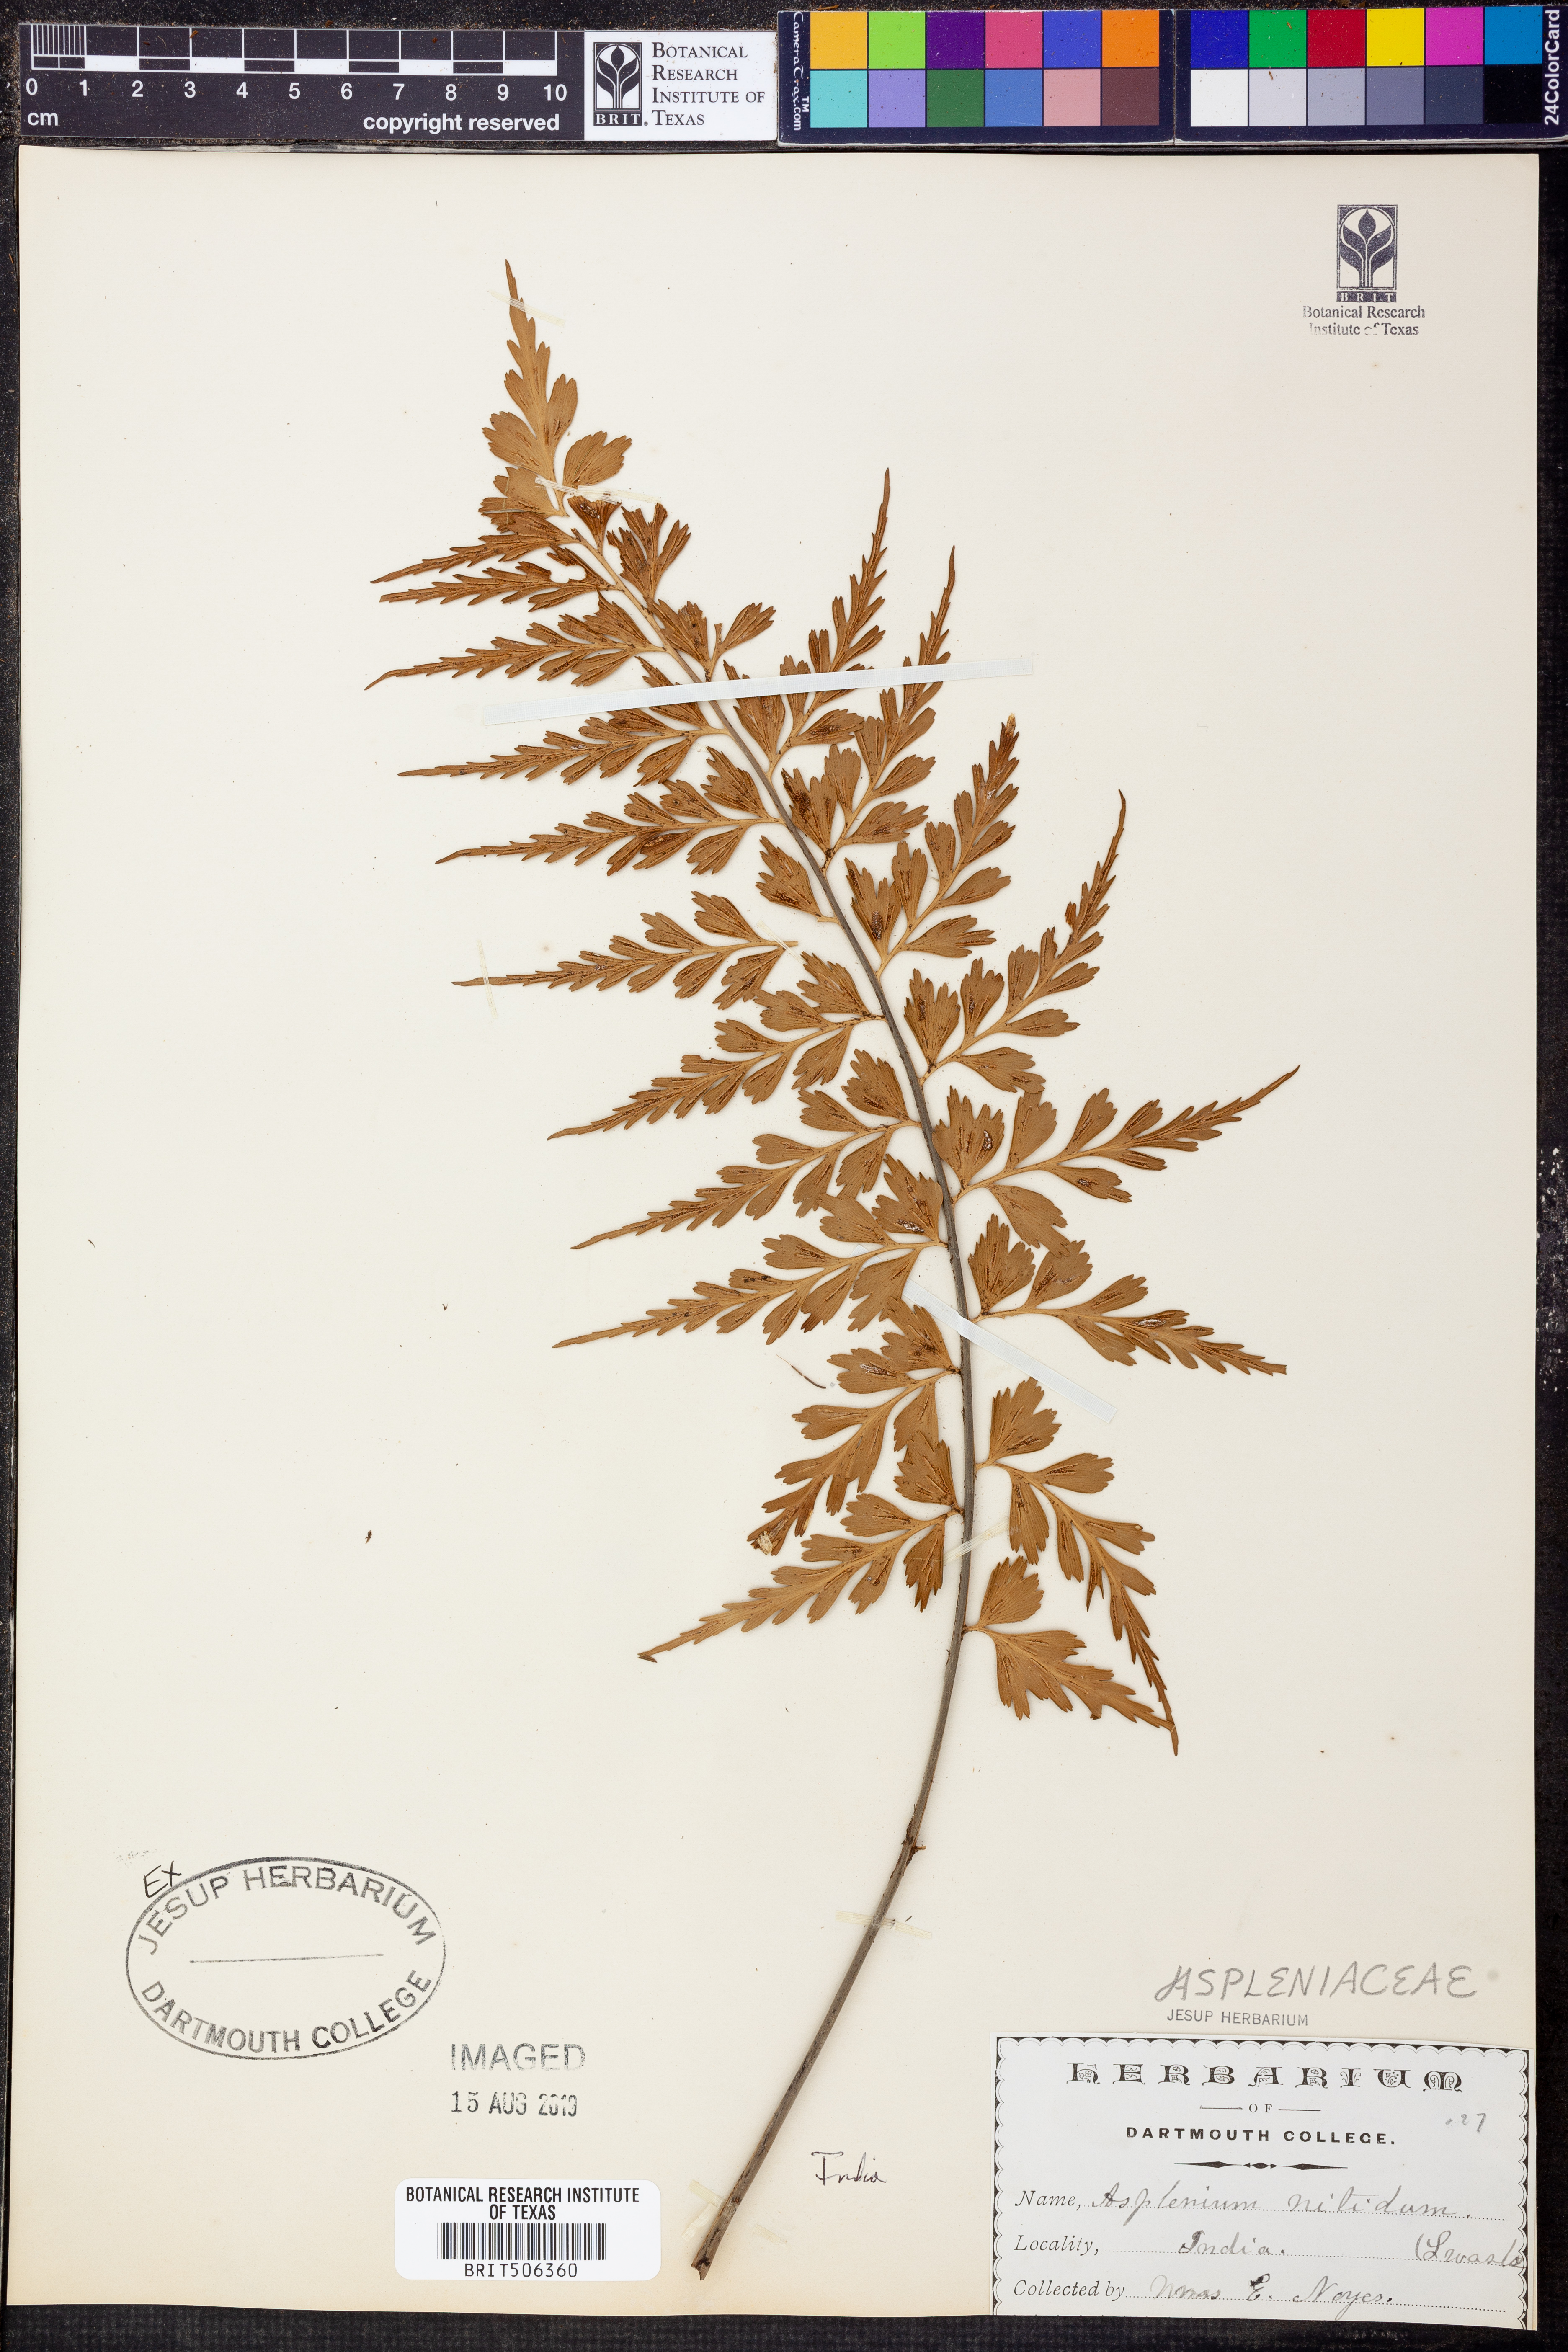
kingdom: Plantae
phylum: Tracheophyta
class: Polypodiopsida
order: Polypodiales
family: Aspleniaceae
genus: Asplenium
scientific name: Asplenium nitidum
